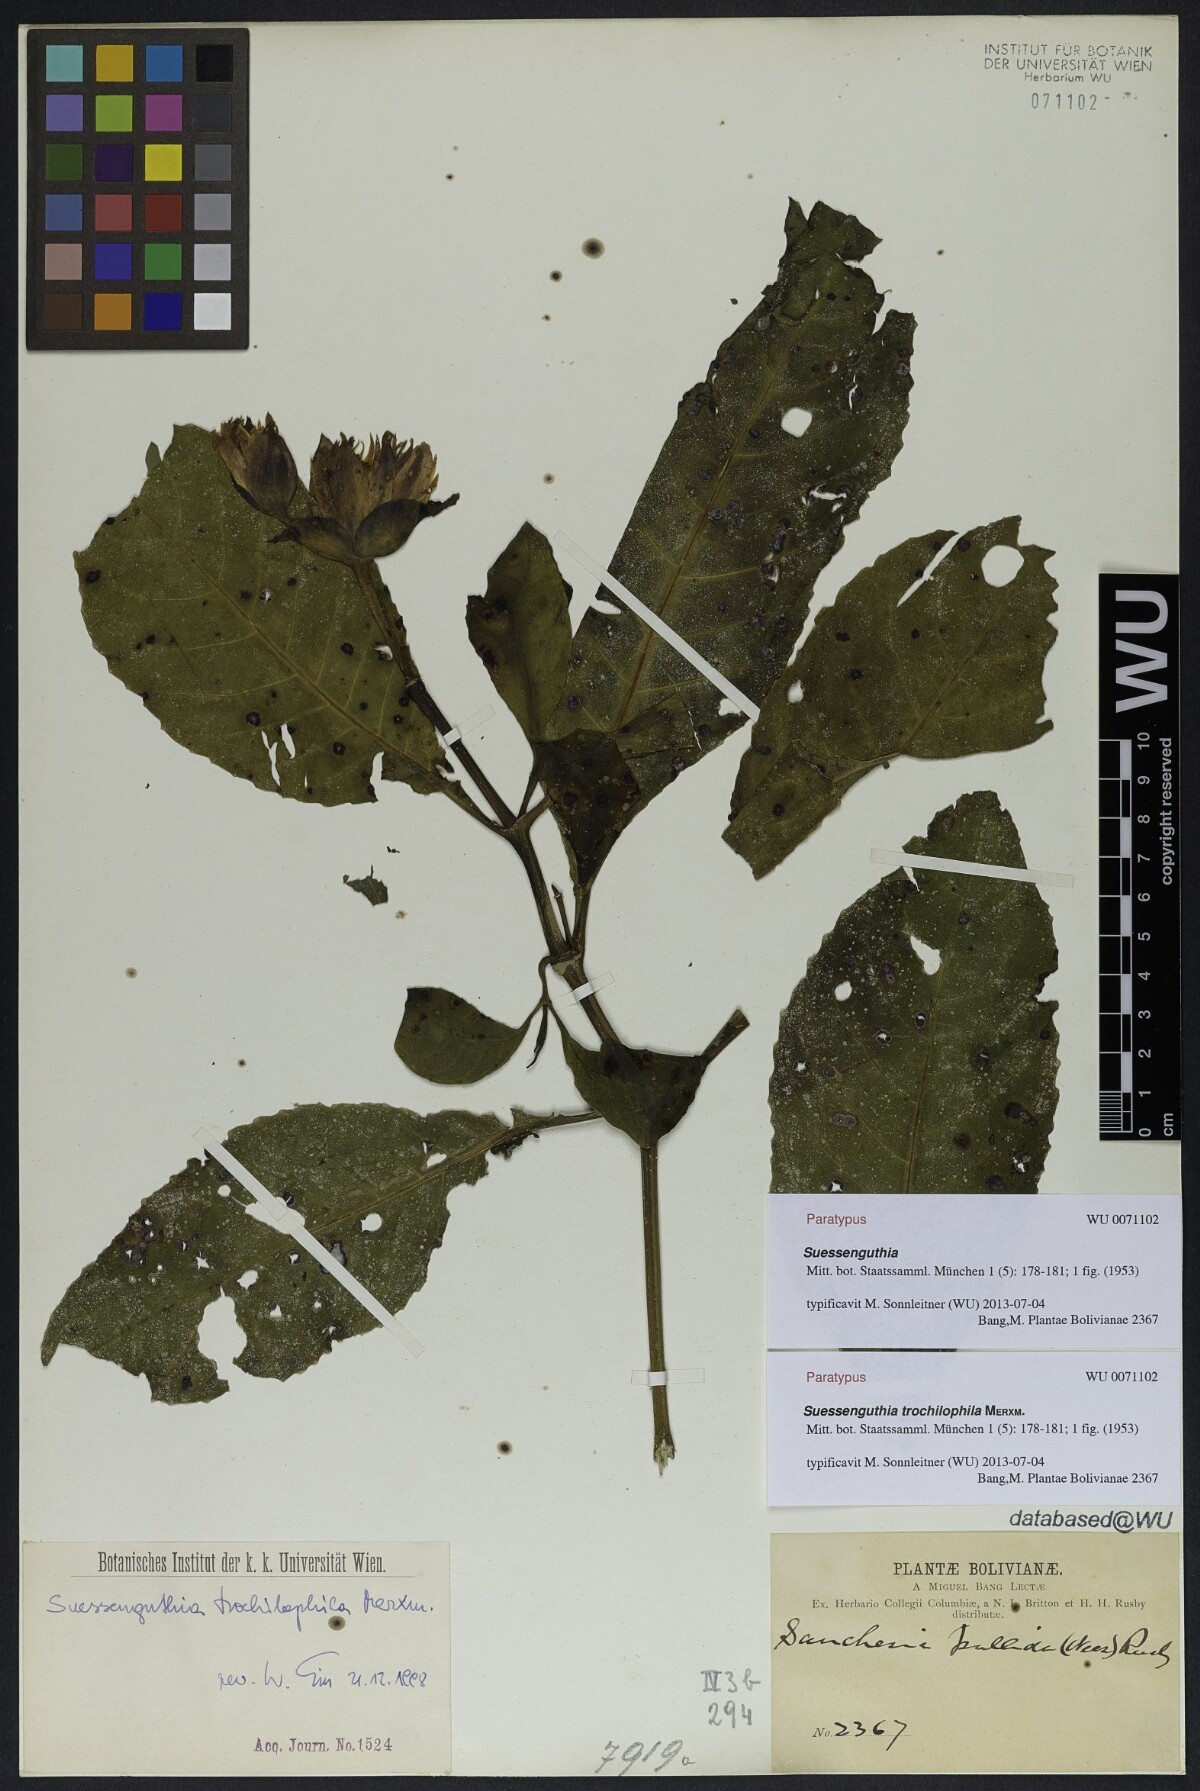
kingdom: Plantae
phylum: Tracheophyta
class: Magnoliopsida
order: Lamiales
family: Acanthaceae
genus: Suessenguthia
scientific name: Suessenguthia trochilophila
